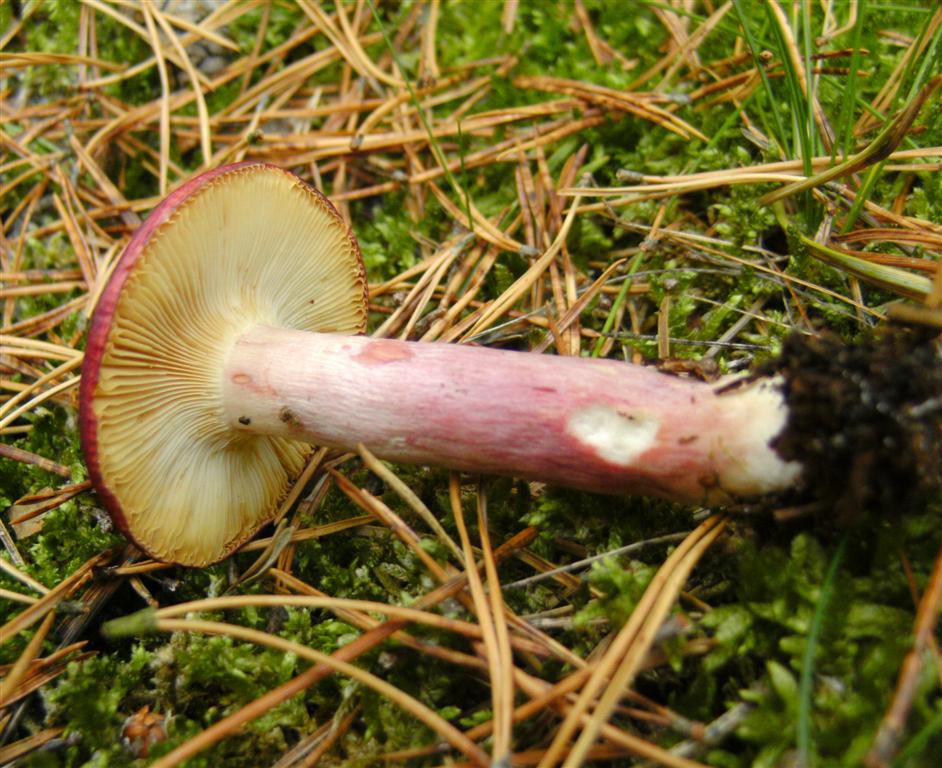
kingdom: Fungi
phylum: Basidiomycota
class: Agaricomycetes
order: Russulales
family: Russulaceae
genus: Russula
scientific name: Russula sardonia
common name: citronbladet skørhat
